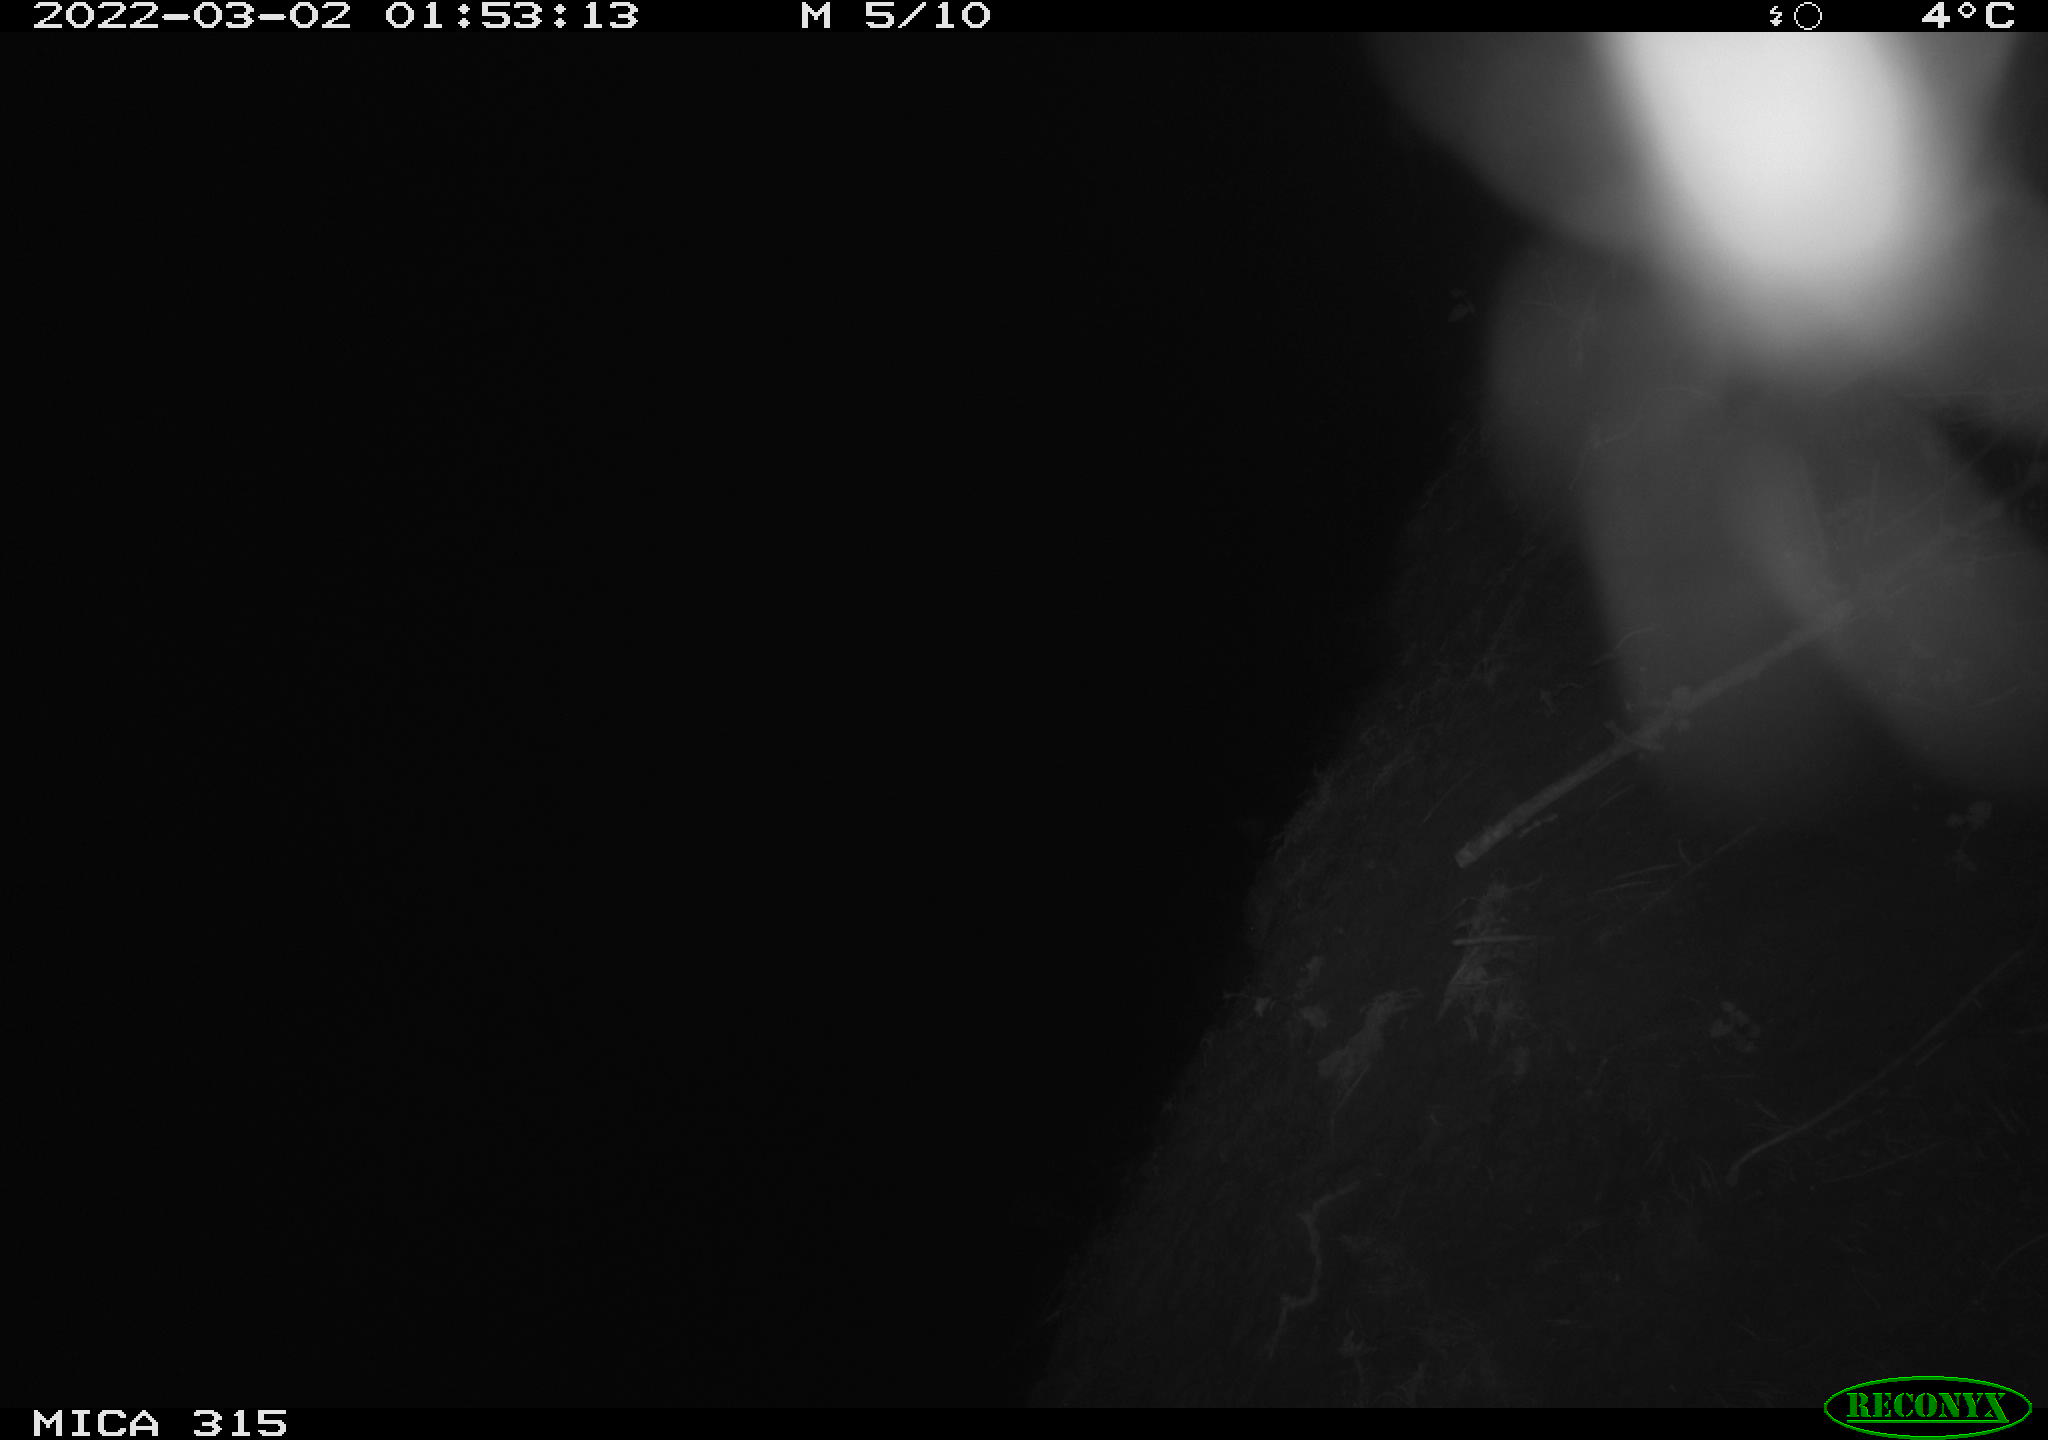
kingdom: Animalia
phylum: Chordata
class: Mammalia
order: Rodentia
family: Cricetidae
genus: Ondatra
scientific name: Ondatra zibethicus
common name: Muskrat
